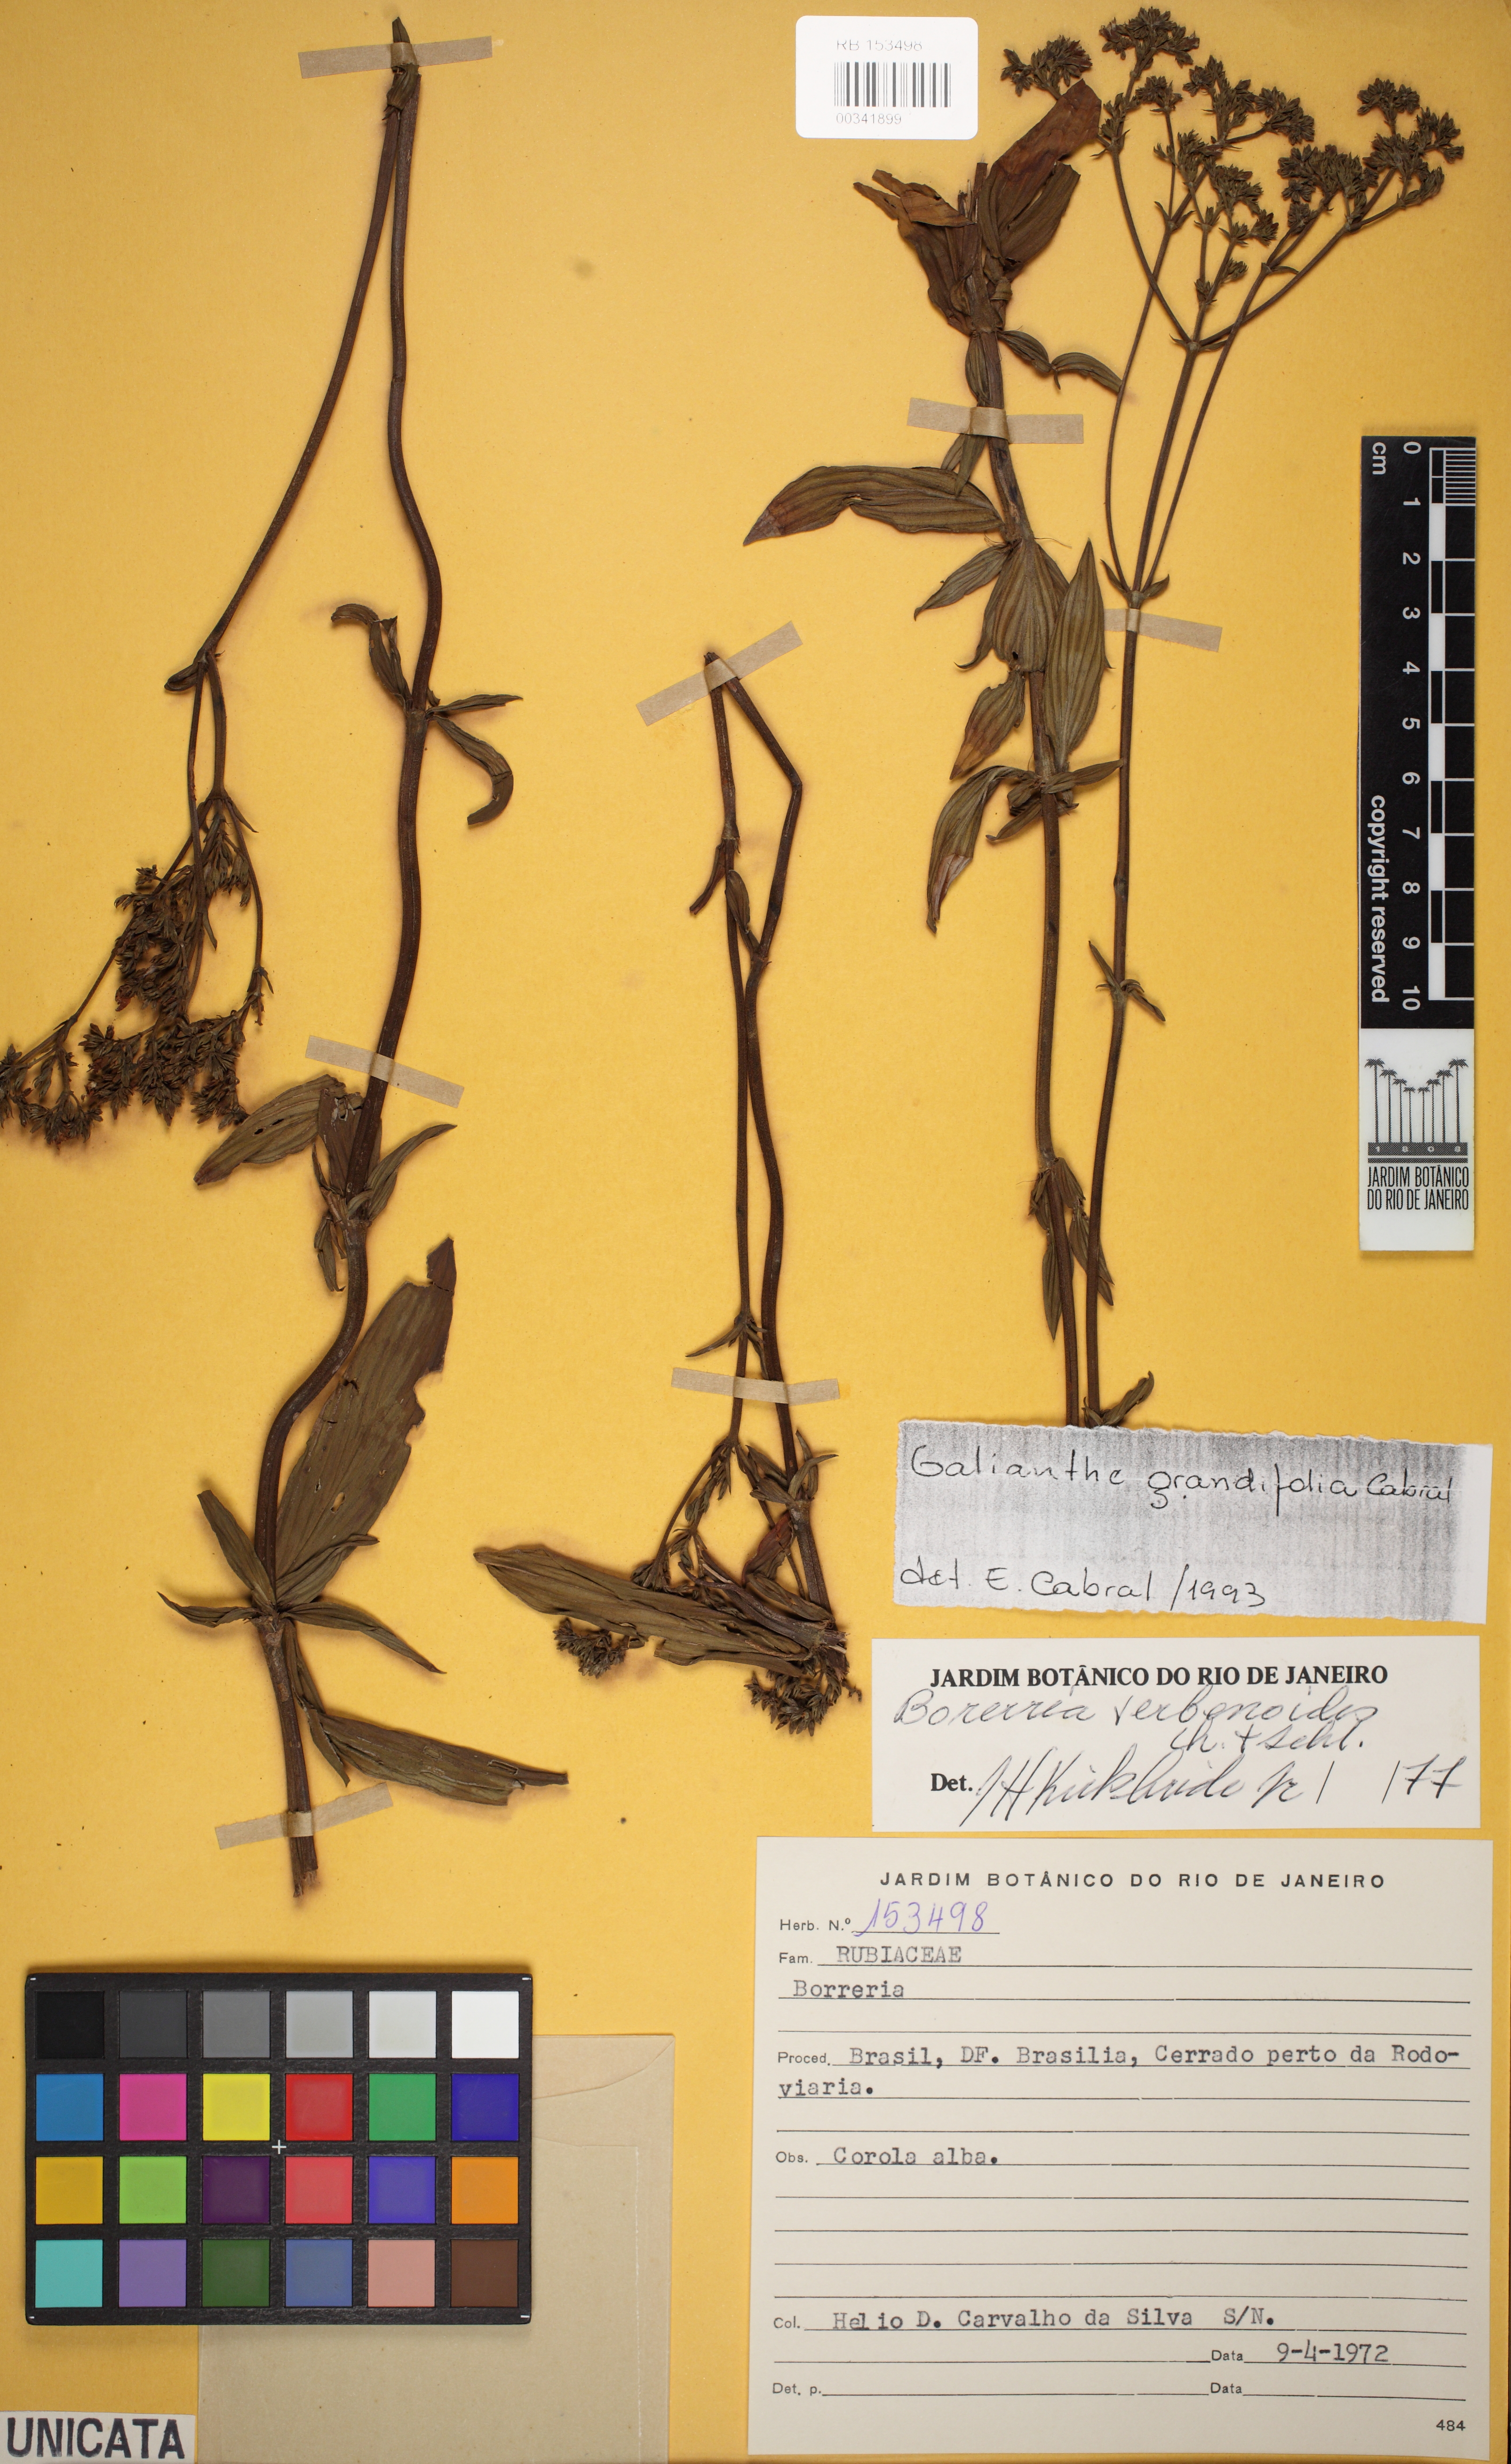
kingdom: Plantae
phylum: Tracheophyta
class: Magnoliopsida
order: Gentianales
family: Rubiaceae
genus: Galianthe
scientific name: Galianthe grandifolia
